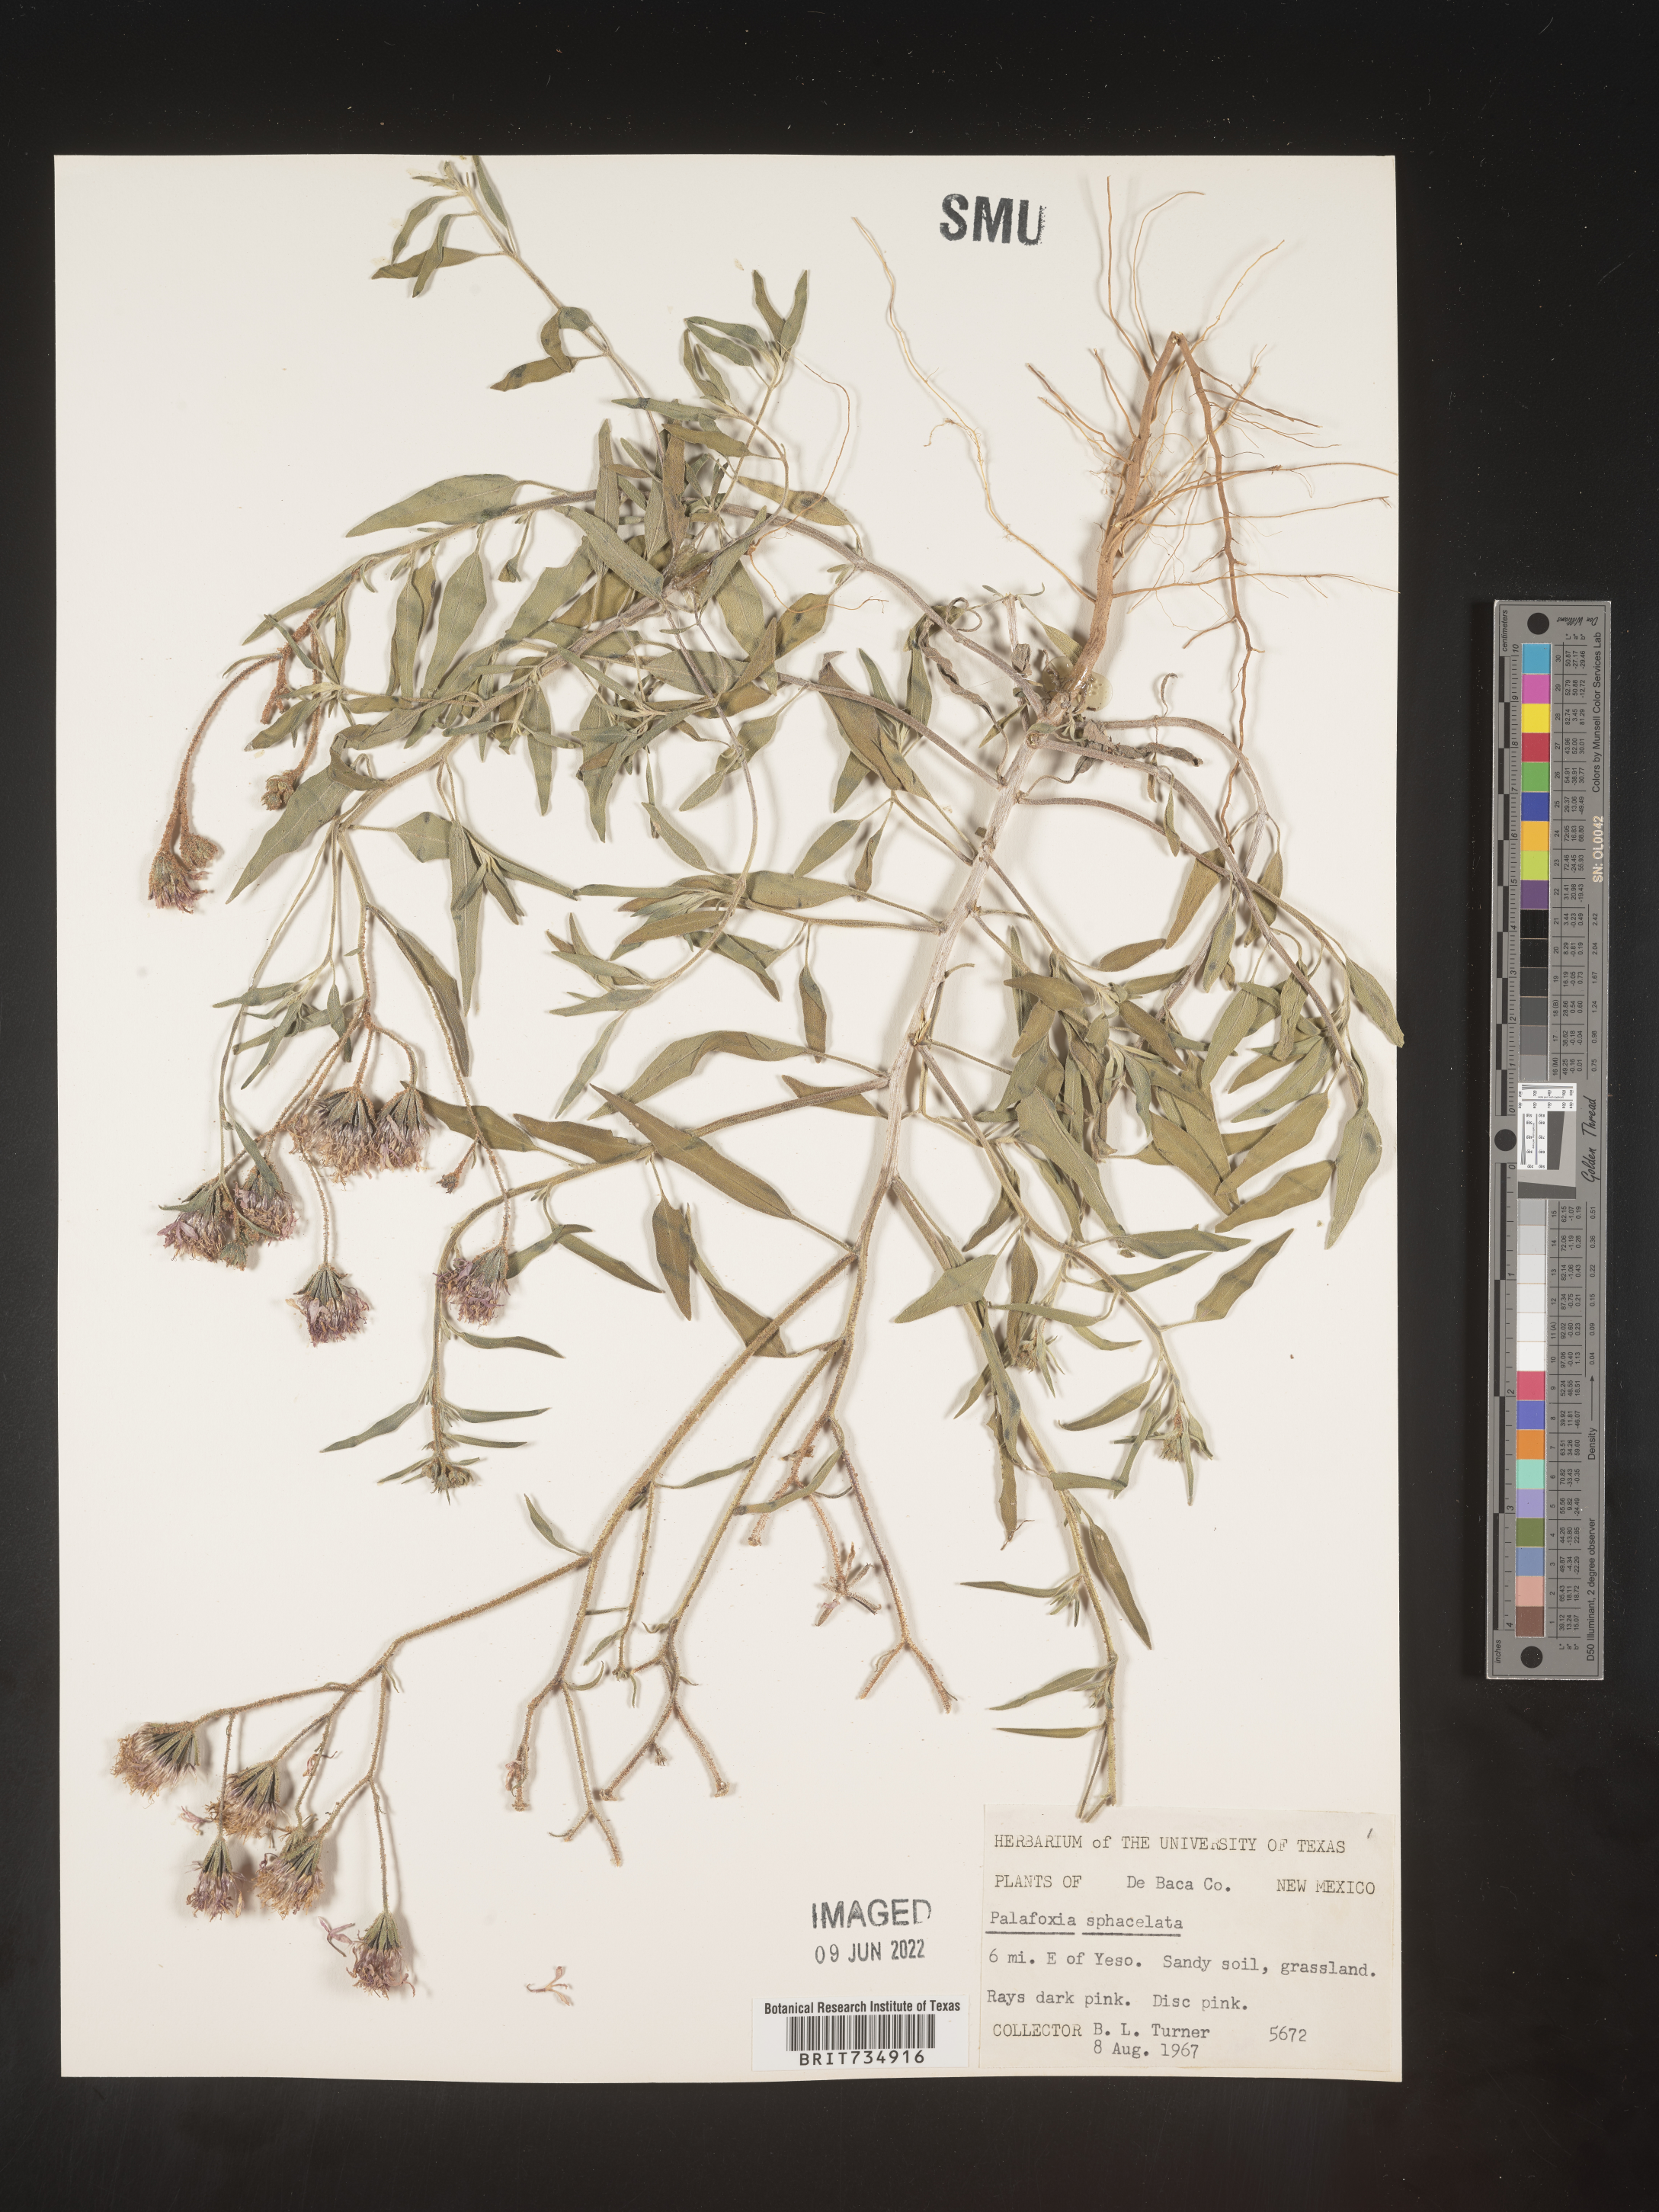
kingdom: Plantae
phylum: Tracheophyta
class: Magnoliopsida
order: Asterales
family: Asteraceae
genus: Palafoxia
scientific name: Palafoxia sphacelata
